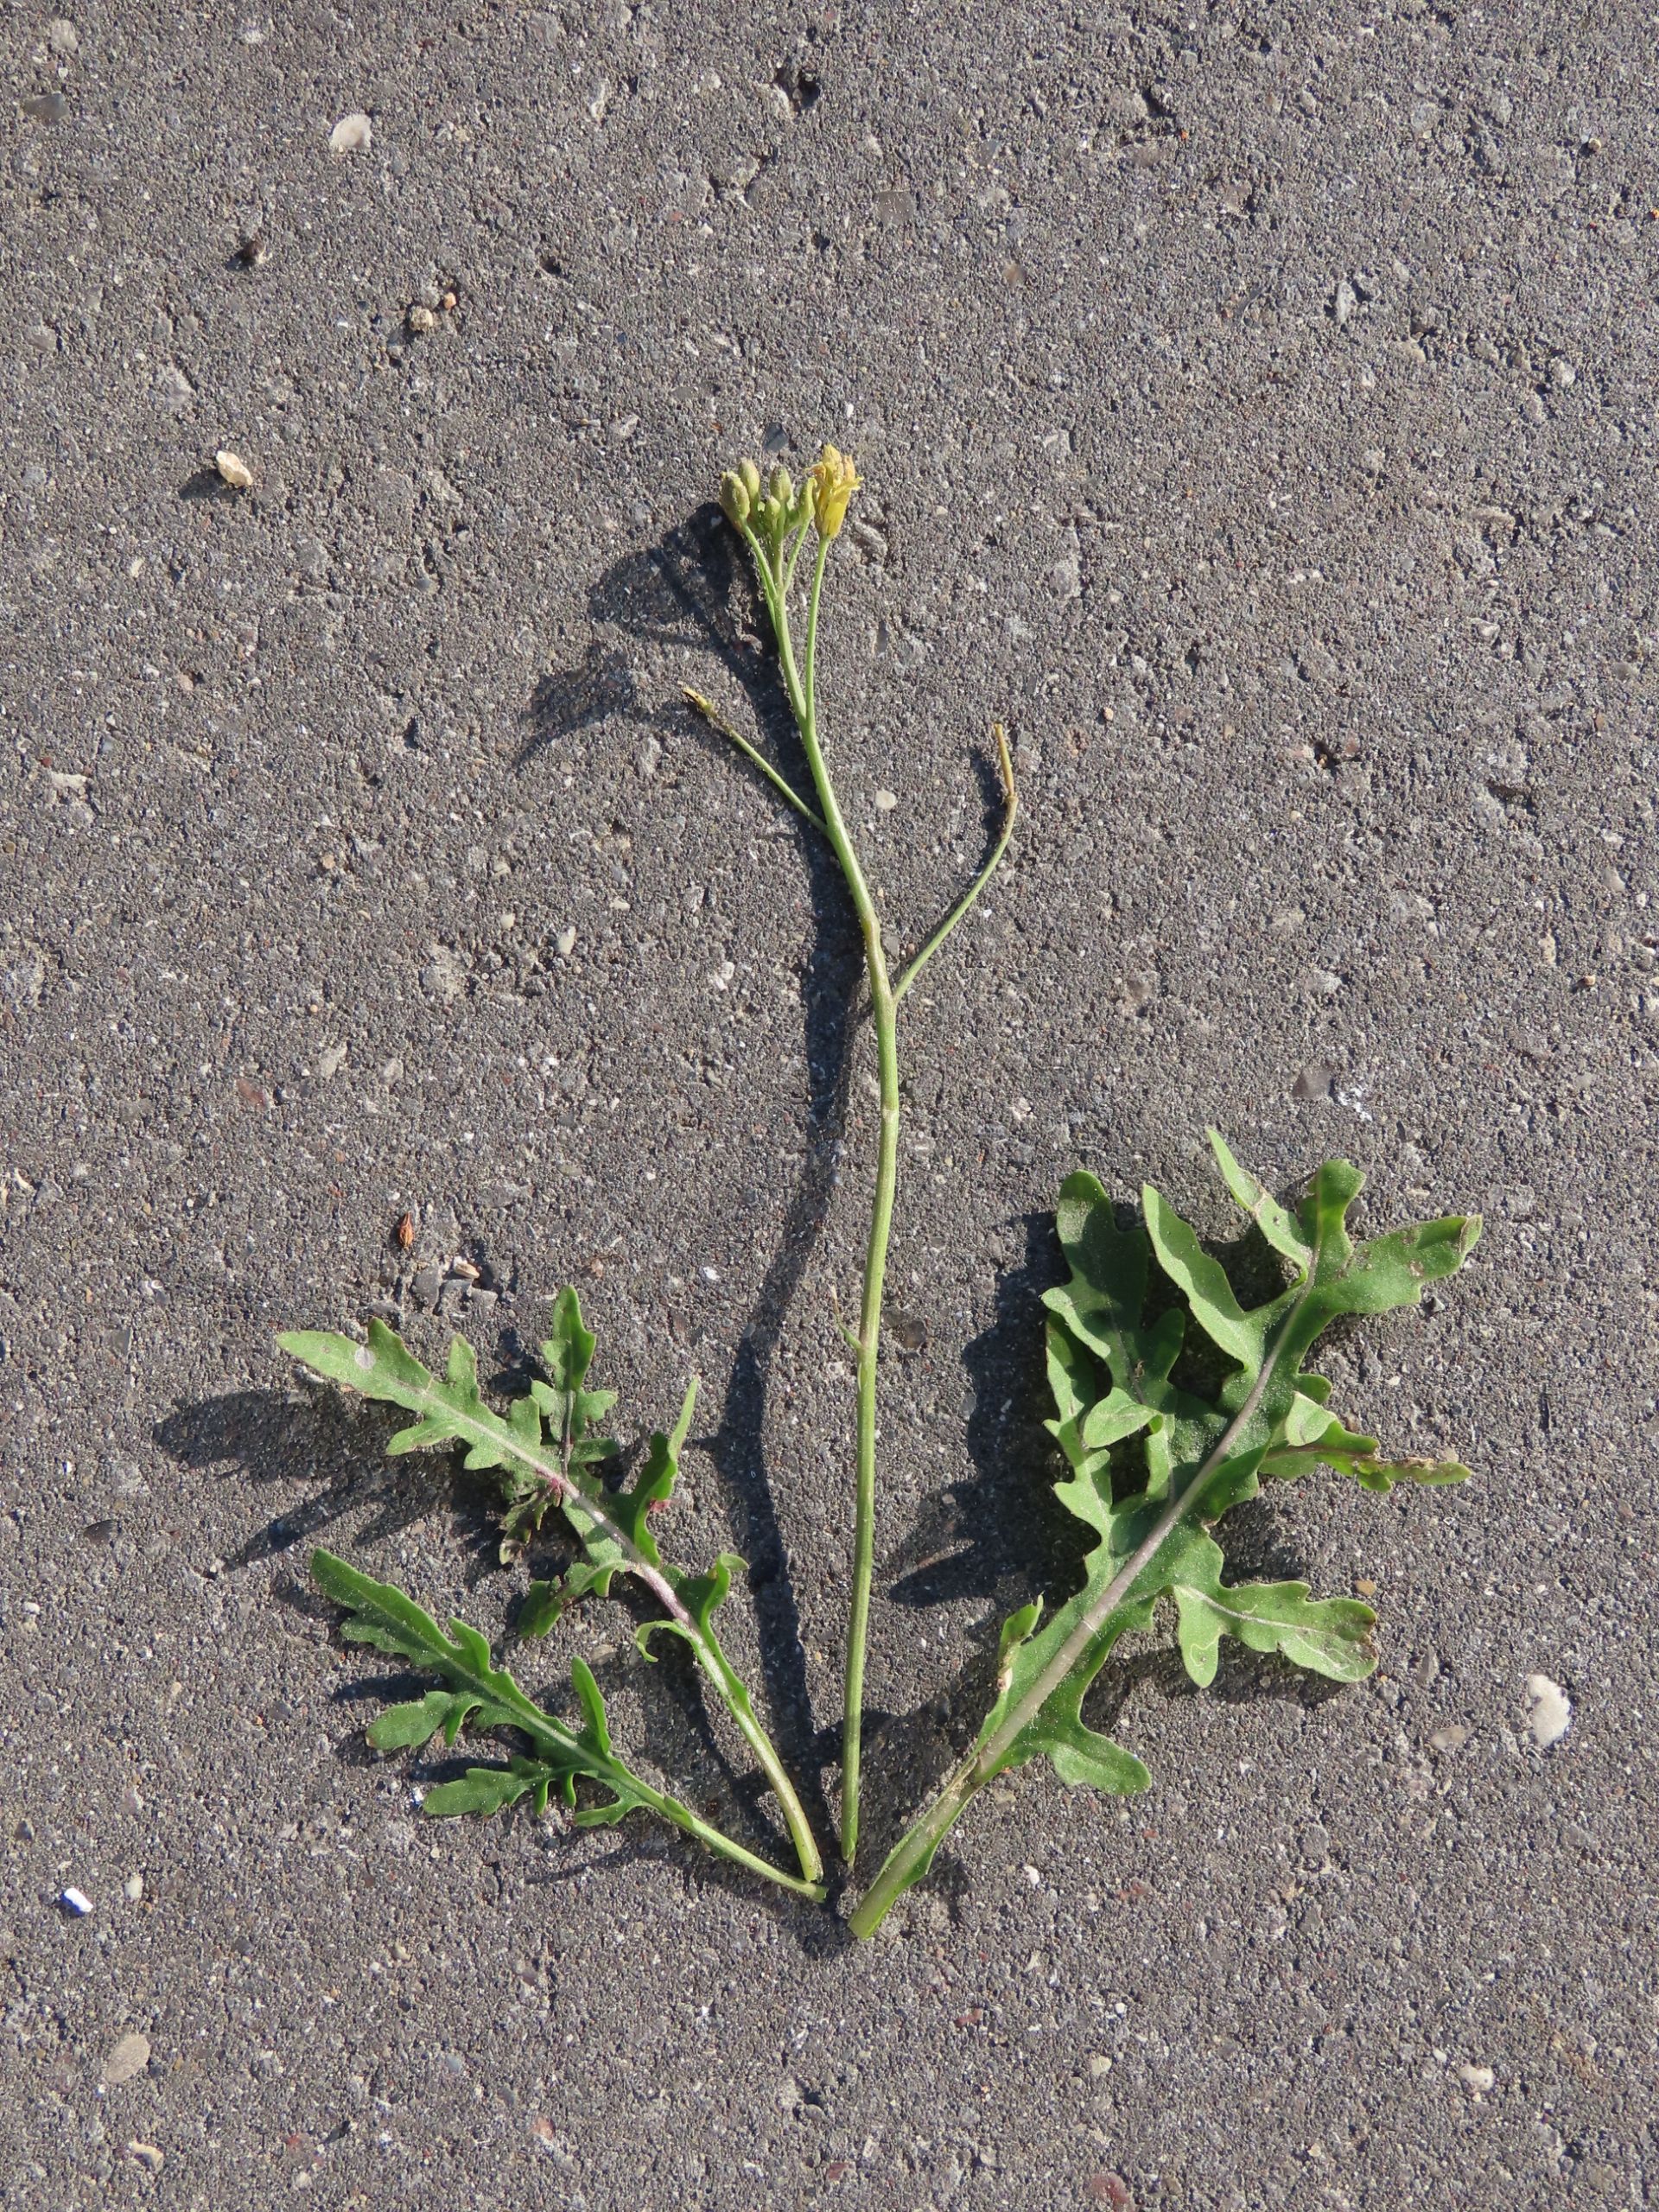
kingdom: Plantae
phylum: Tracheophyta
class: Magnoliopsida
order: Brassicales
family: Brassicaceae
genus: Diplotaxis
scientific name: Diplotaxis tenuifolia
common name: Sandsennep
